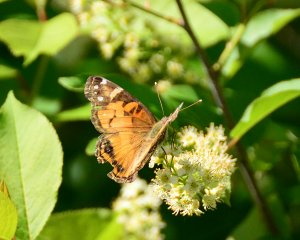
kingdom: Animalia
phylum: Arthropoda
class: Insecta
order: Lepidoptera
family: Nymphalidae
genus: Vanessa
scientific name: Vanessa virginiensis
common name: American Lady
